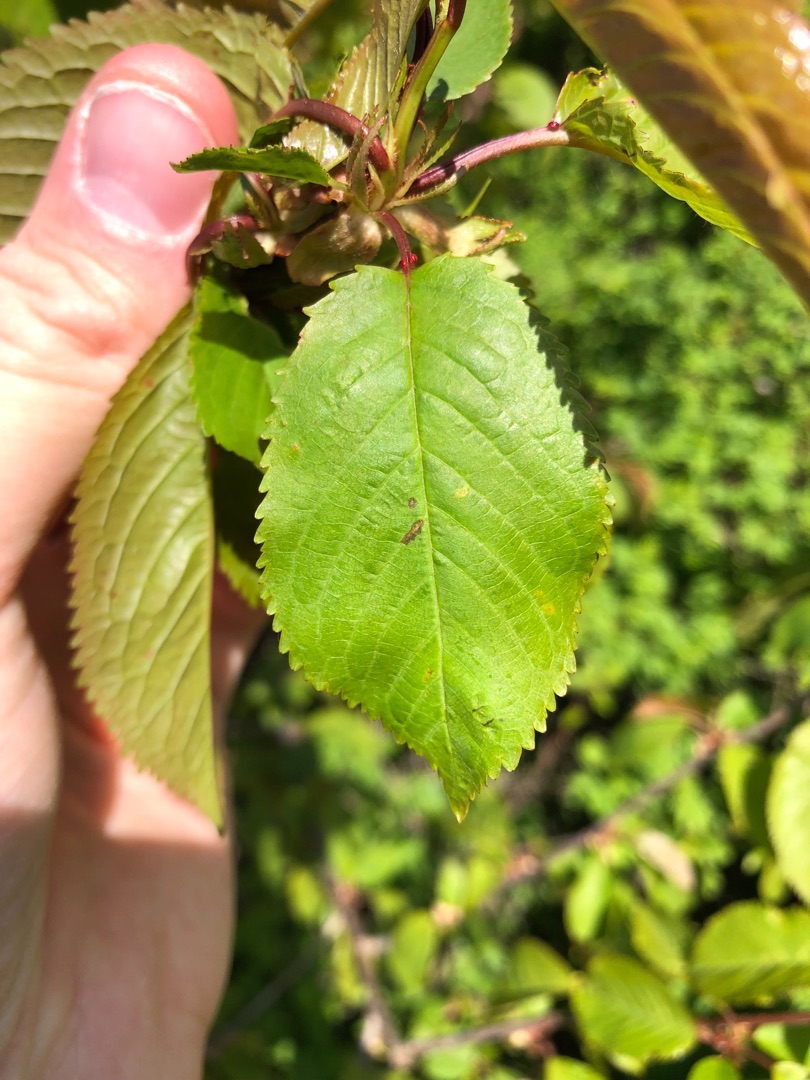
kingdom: Plantae
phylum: Tracheophyta
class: Magnoliopsida
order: Rosales
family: Rosaceae
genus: Prunus
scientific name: Prunus avium
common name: Fugle-kirsebær
